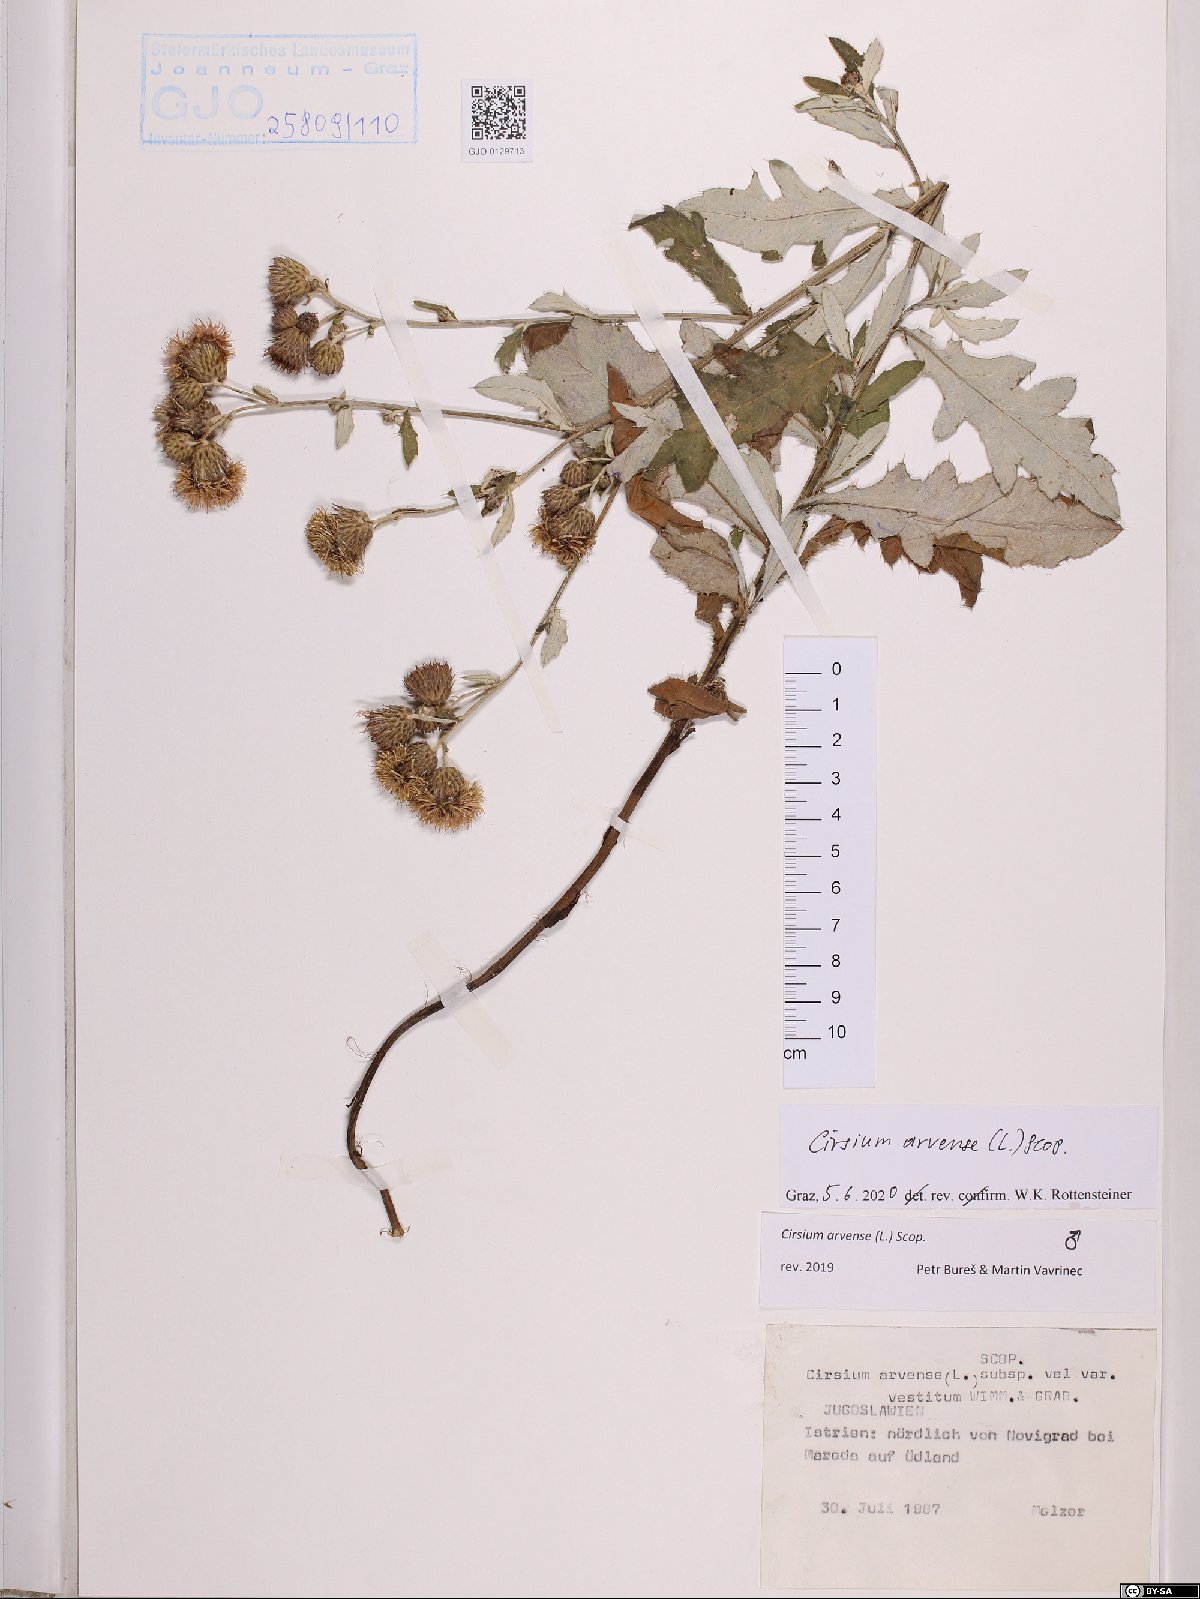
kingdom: Plantae
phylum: Tracheophyta
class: Magnoliopsida
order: Asterales
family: Asteraceae
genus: Cirsium
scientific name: Cirsium arvense
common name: Creeping thistle
